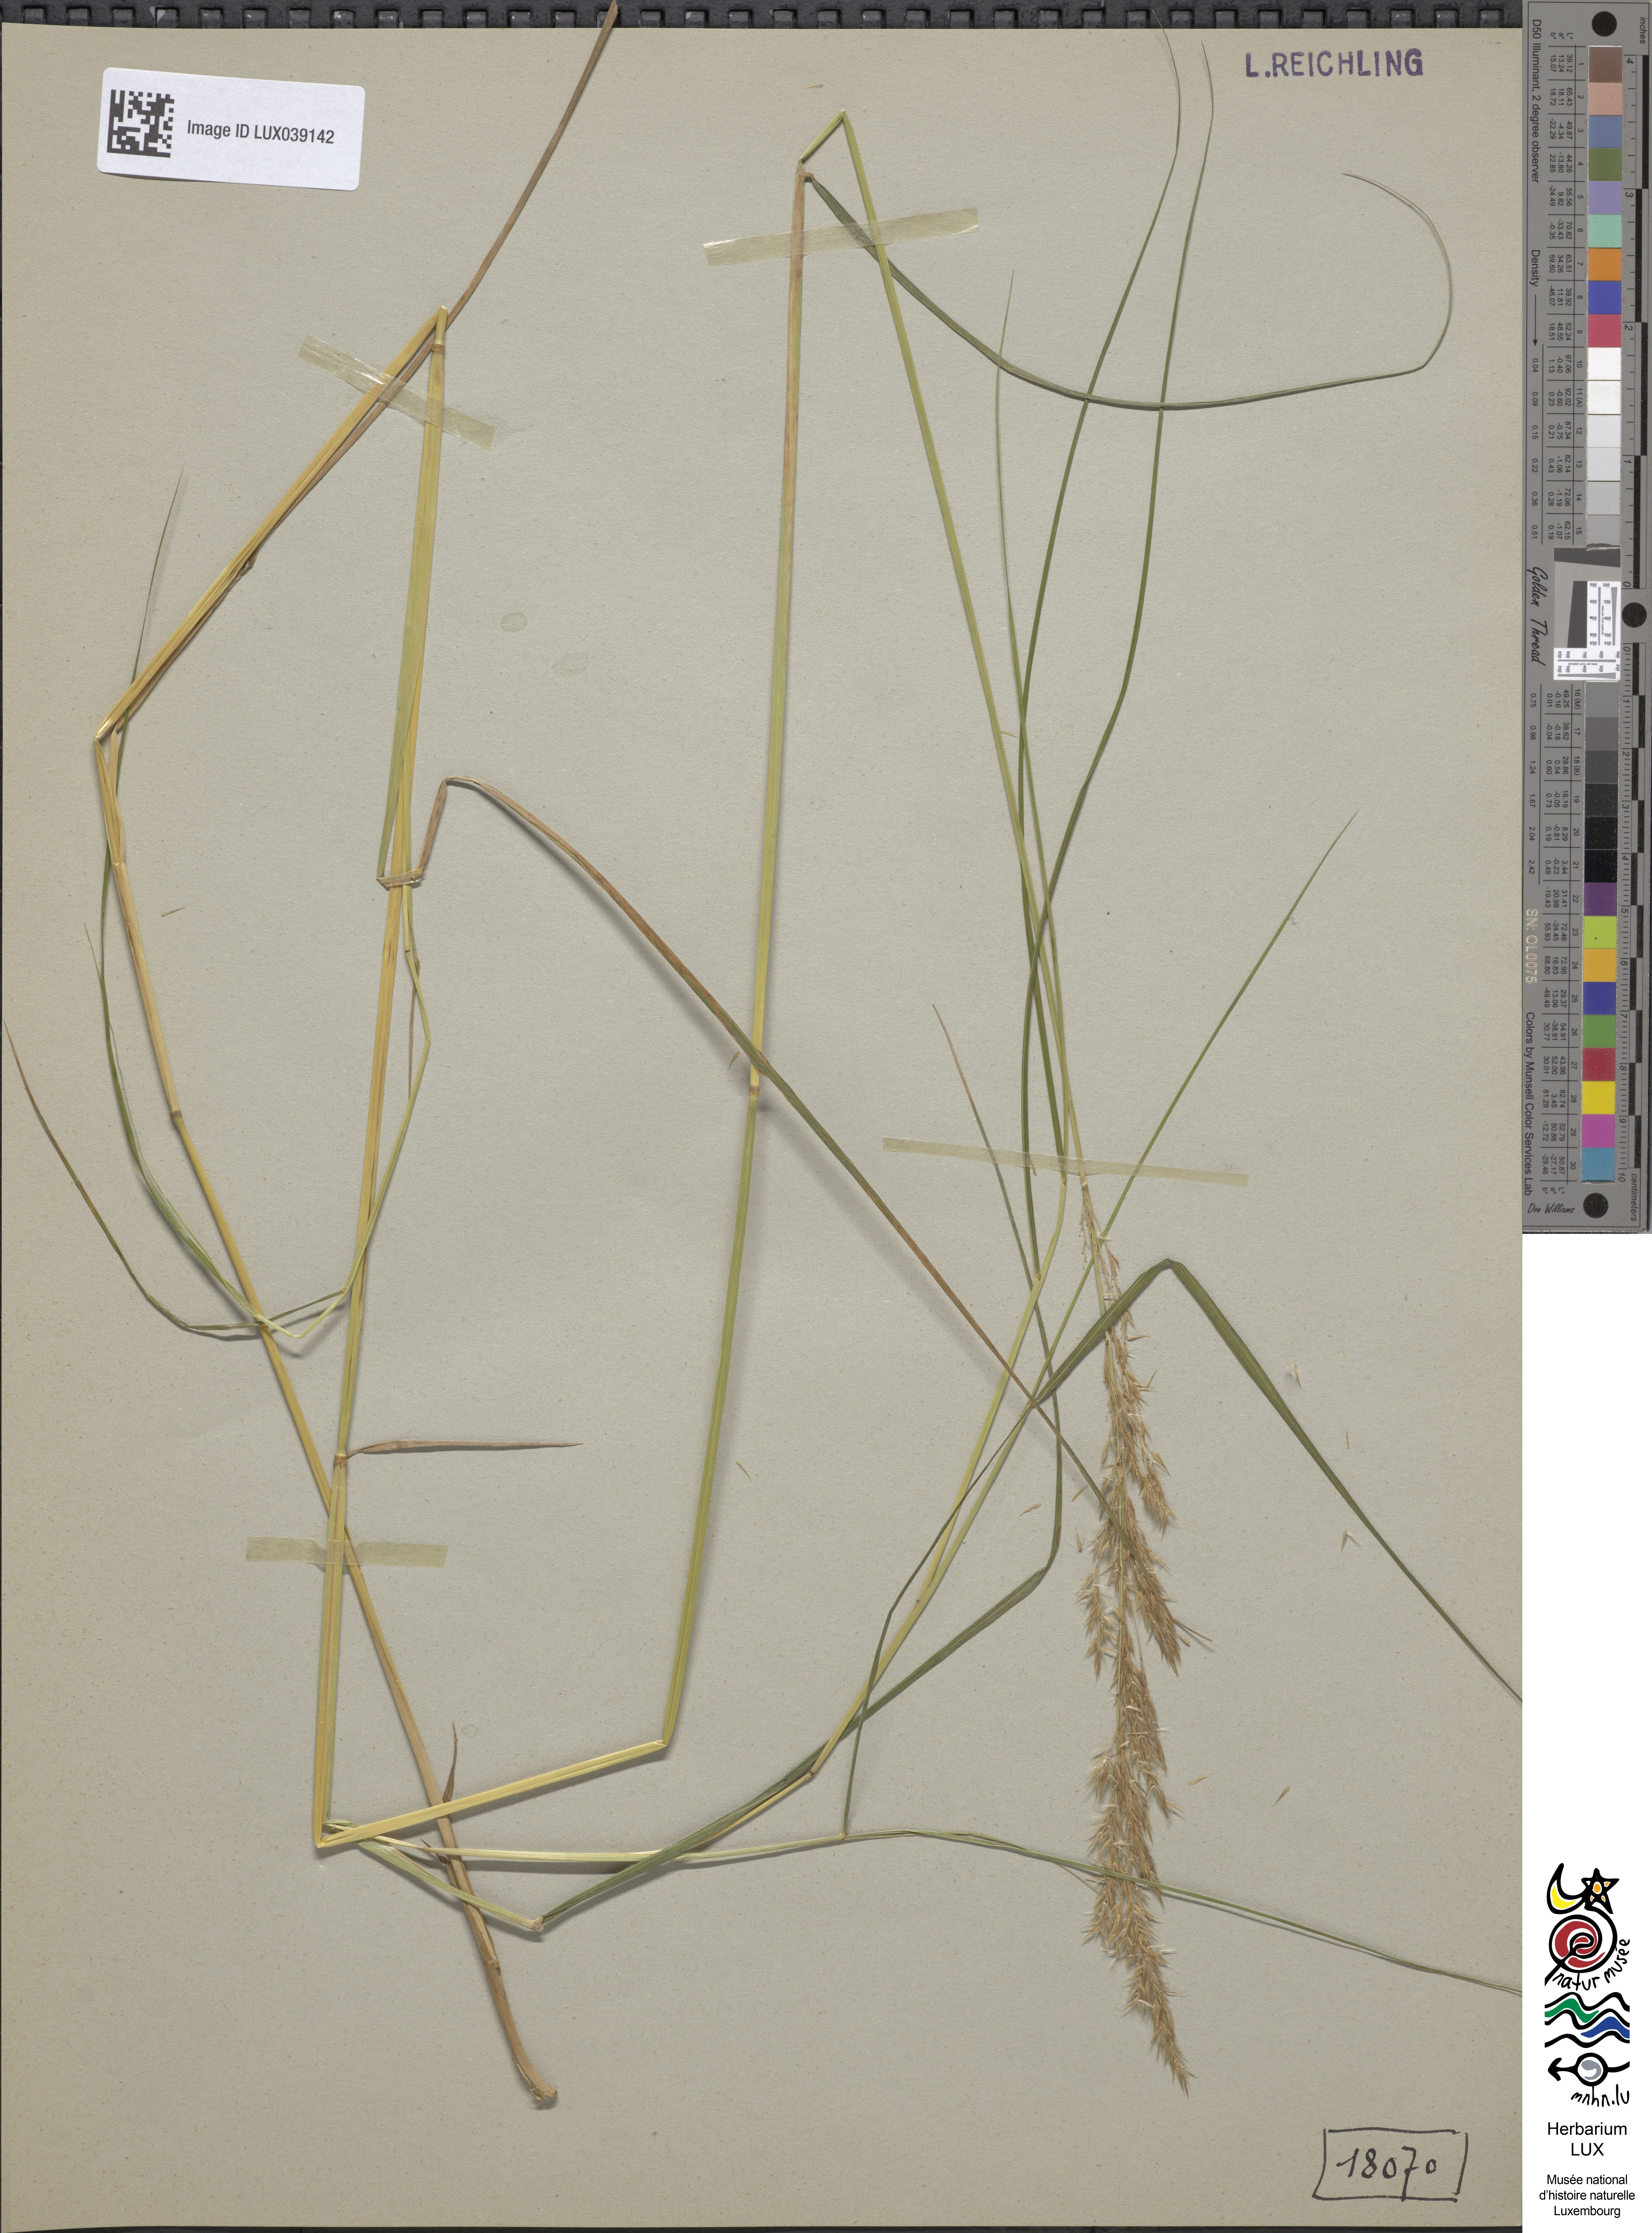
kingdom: Plantae
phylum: Tracheophyta
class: Liliopsida
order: Poales
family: Poaceae
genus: Calamagrostis
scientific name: Calamagrostis canescens
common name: Purple small-reed
